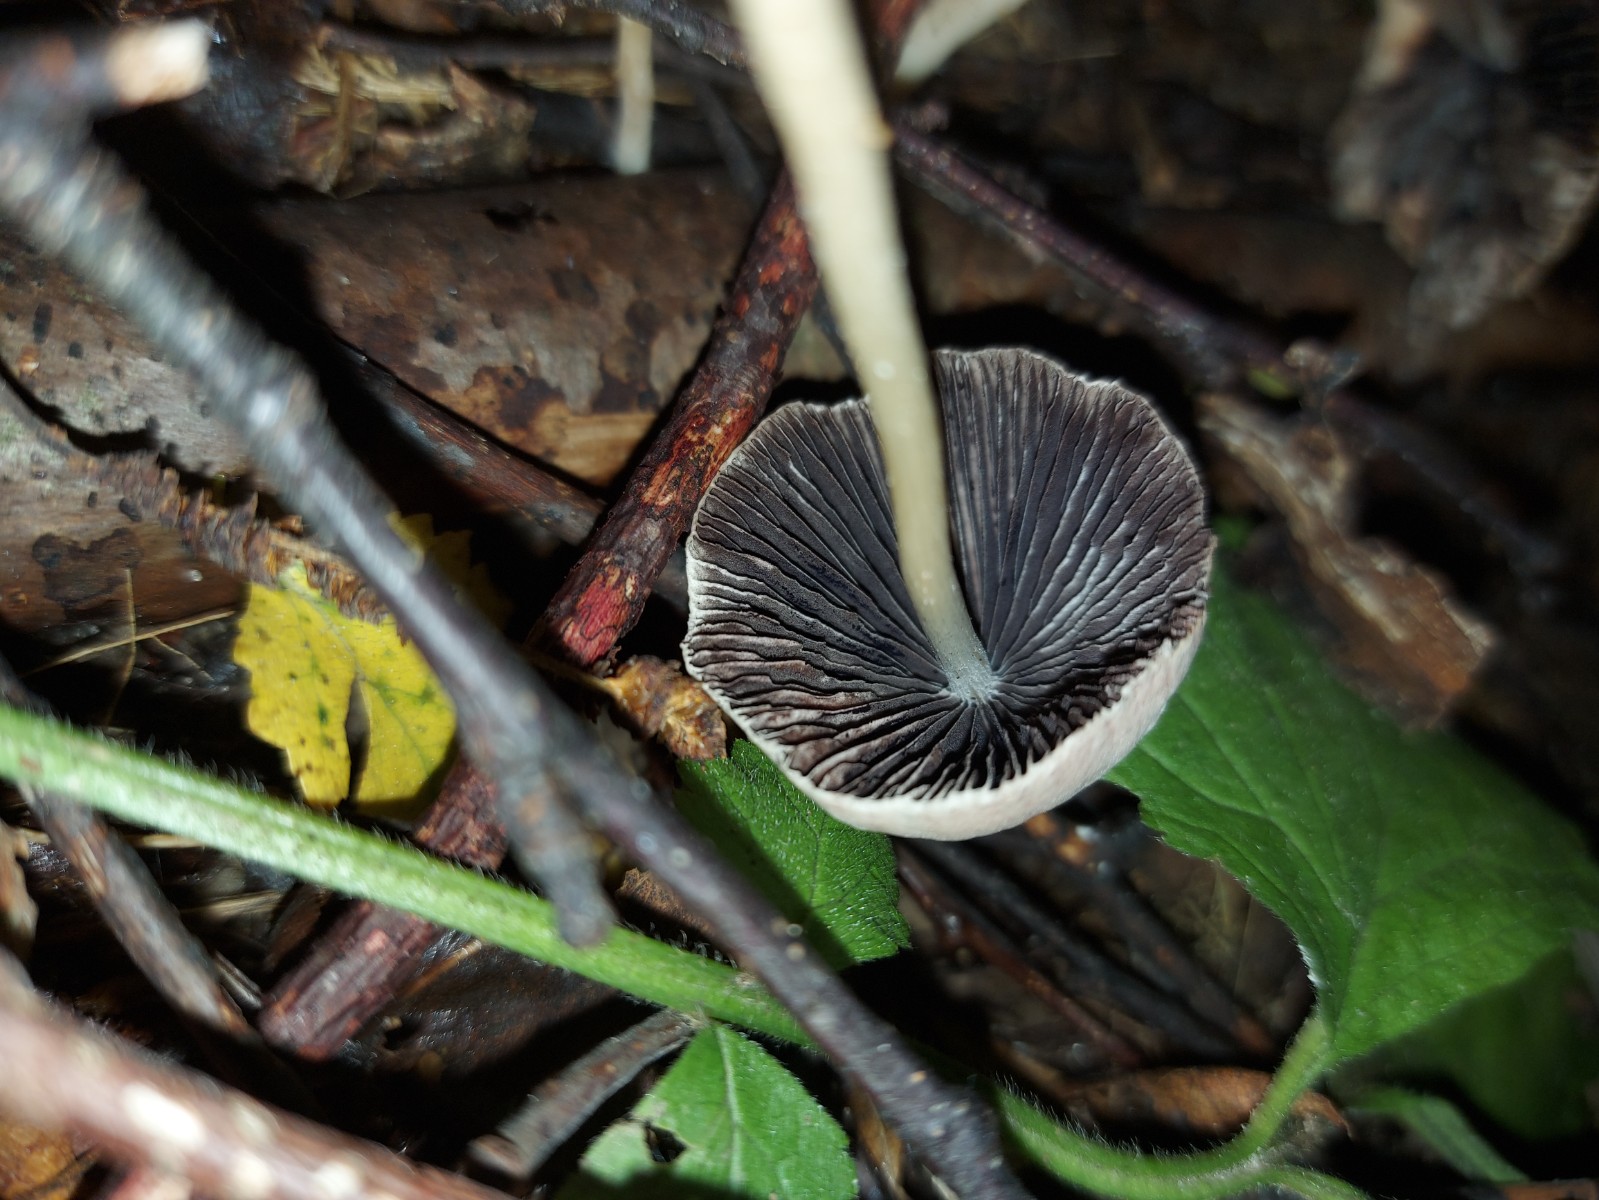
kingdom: Fungi
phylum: Basidiomycota
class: Agaricomycetes
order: Agaricales
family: Psathyrellaceae
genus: Psathyrella
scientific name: Psathyrella
